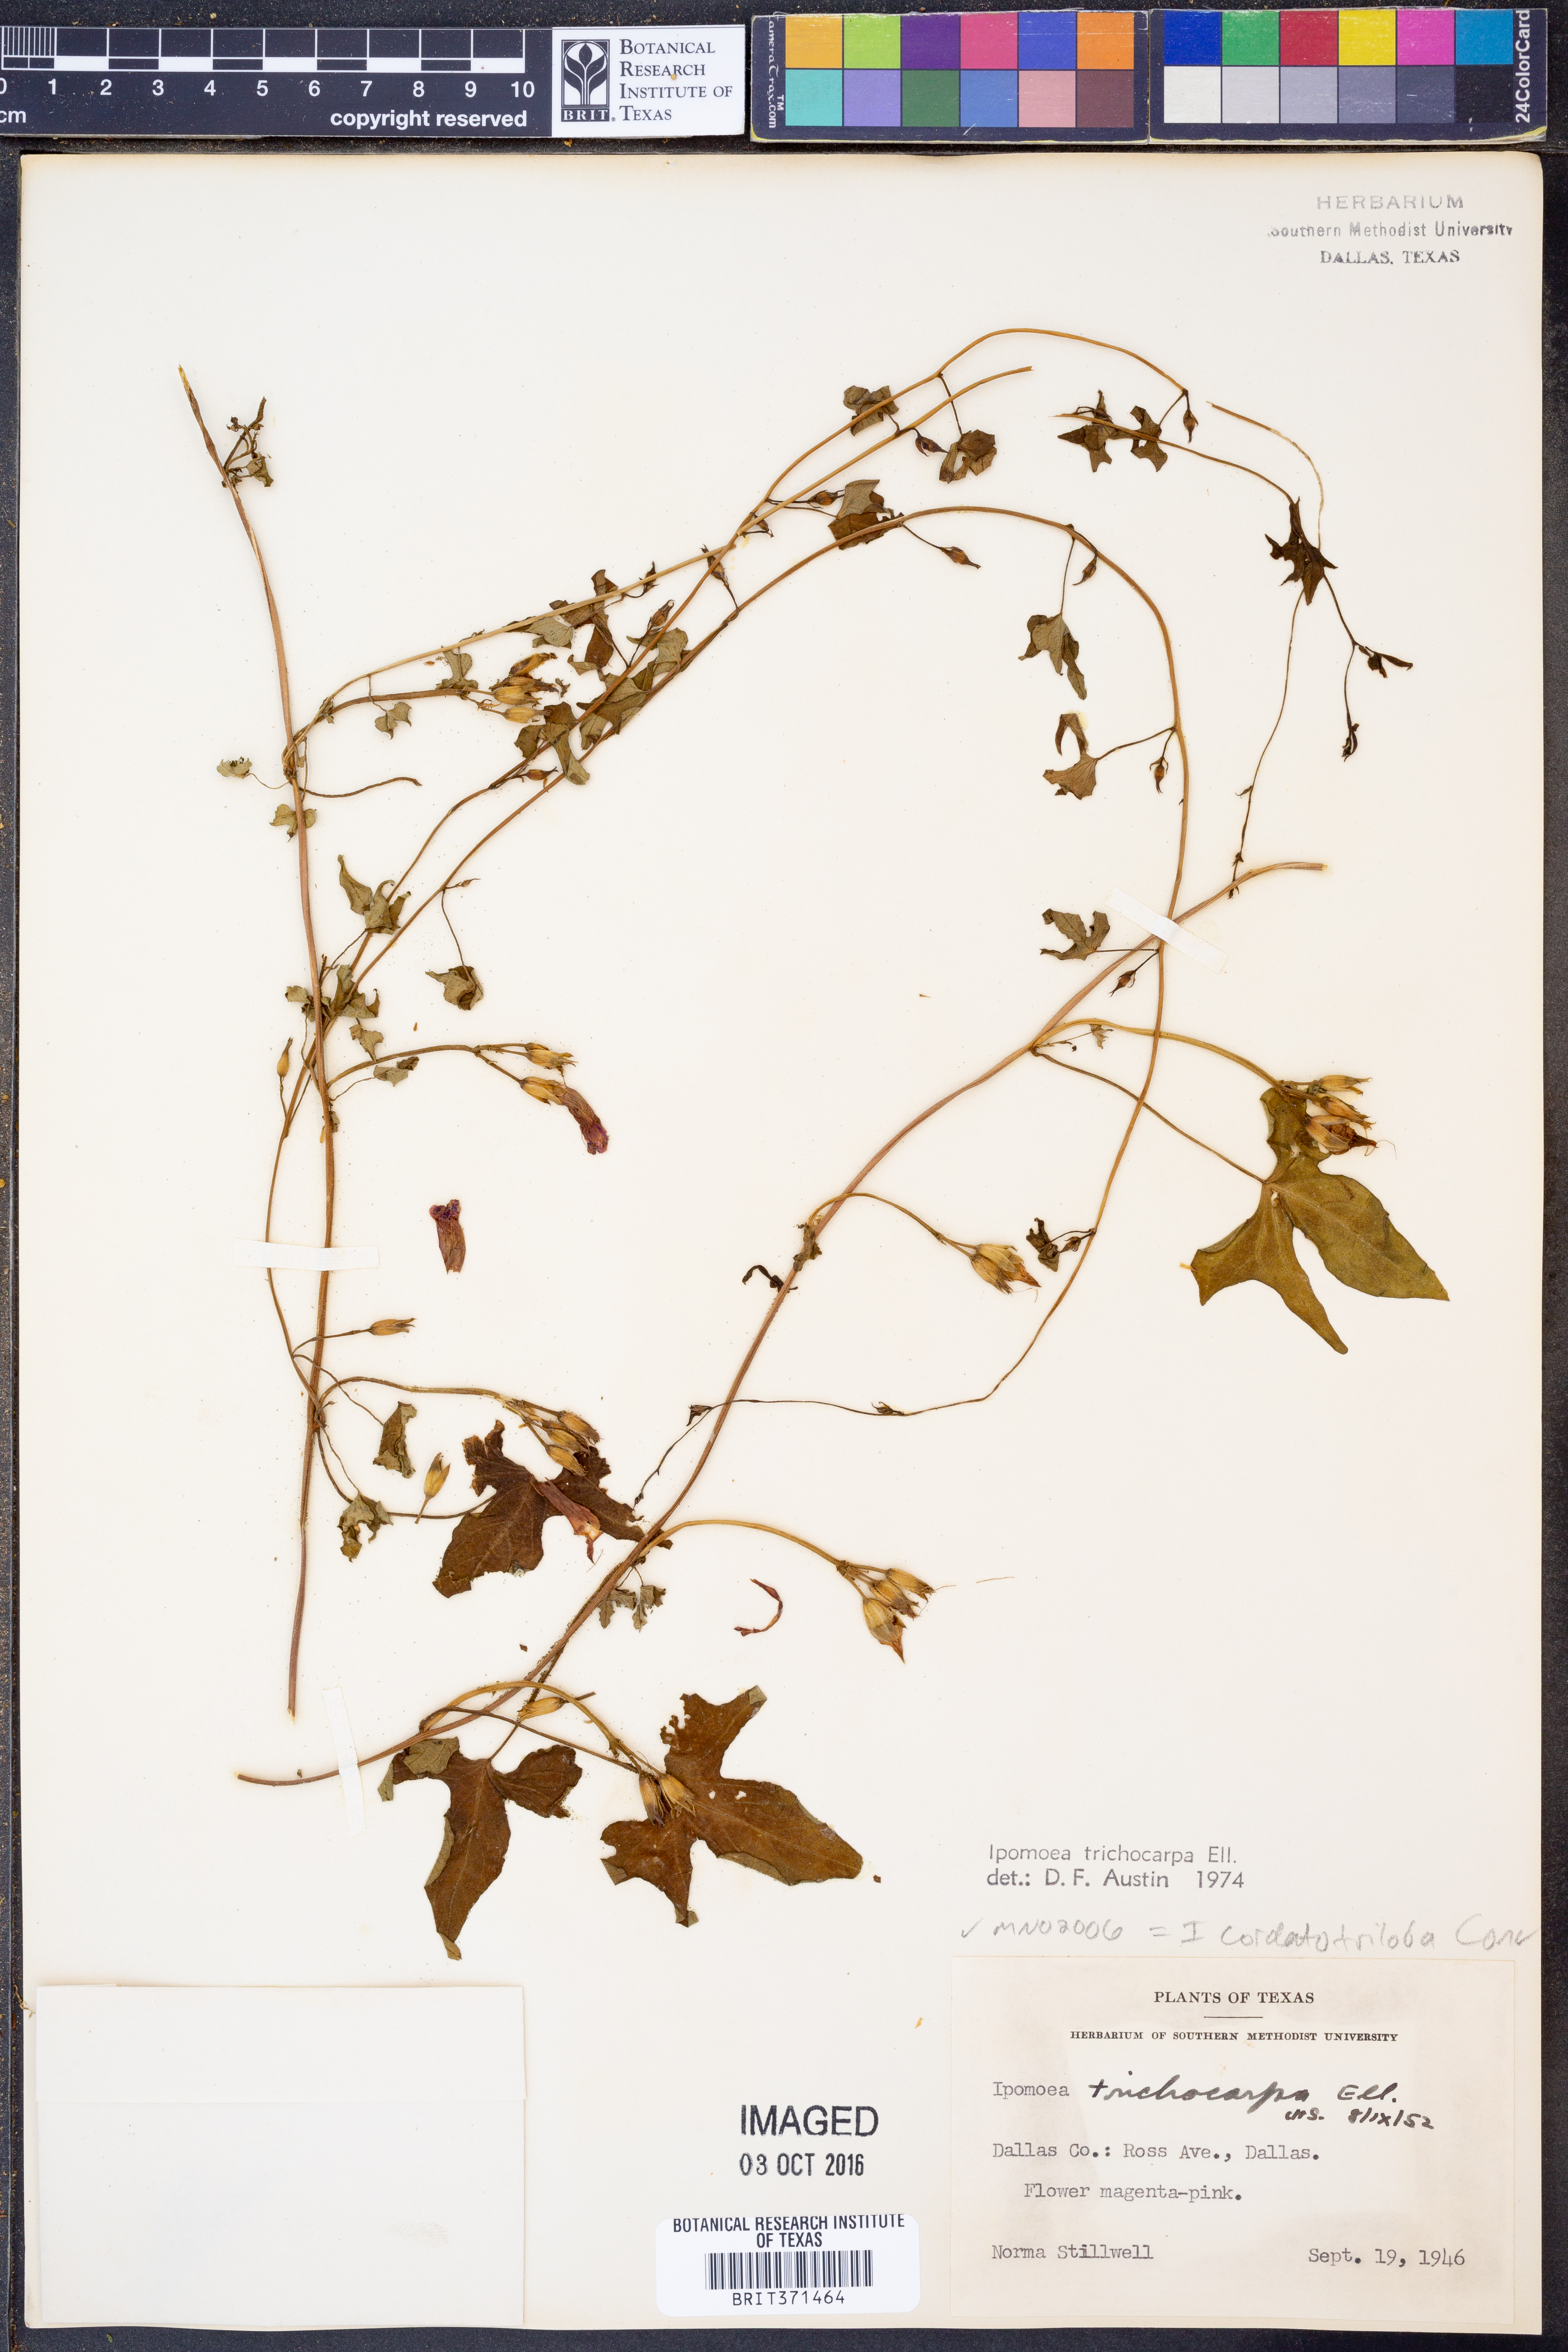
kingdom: Plantae
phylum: Tracheophyta
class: Magnoliopsida
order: Solanales
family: Convolvulaceae
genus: Ipomoea
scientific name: Ipomoea cordatotriloba
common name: Cotton morning glory
